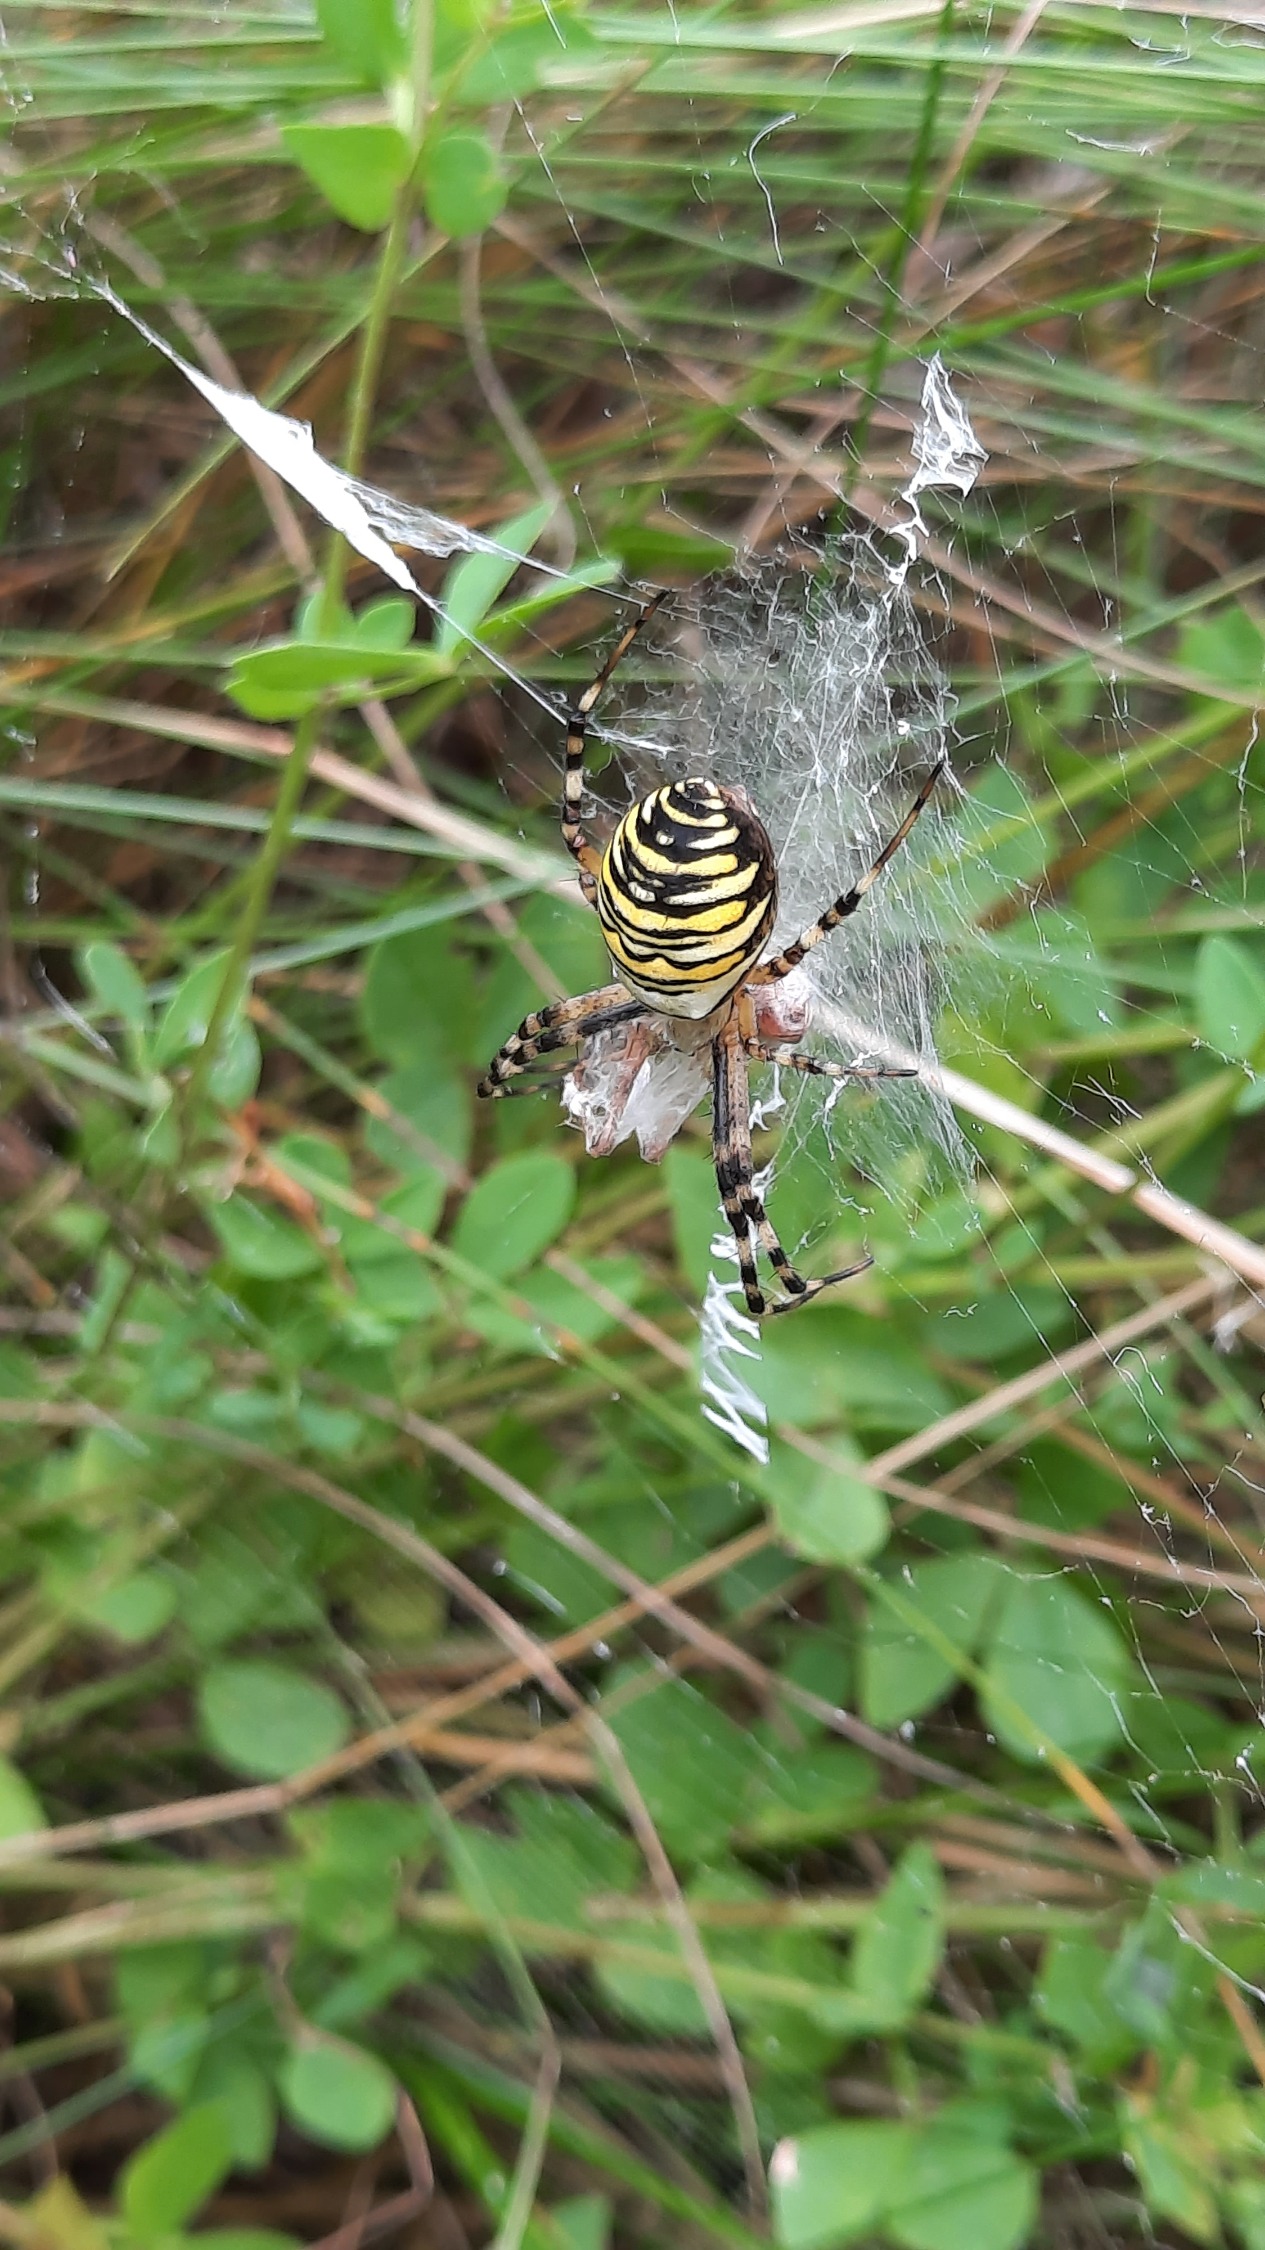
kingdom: Animalia
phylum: Arthropoda
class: Arachnida
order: Araneae
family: Araneidae
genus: Argiope
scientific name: Argiope bruennichi
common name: Hvepseedderkop
